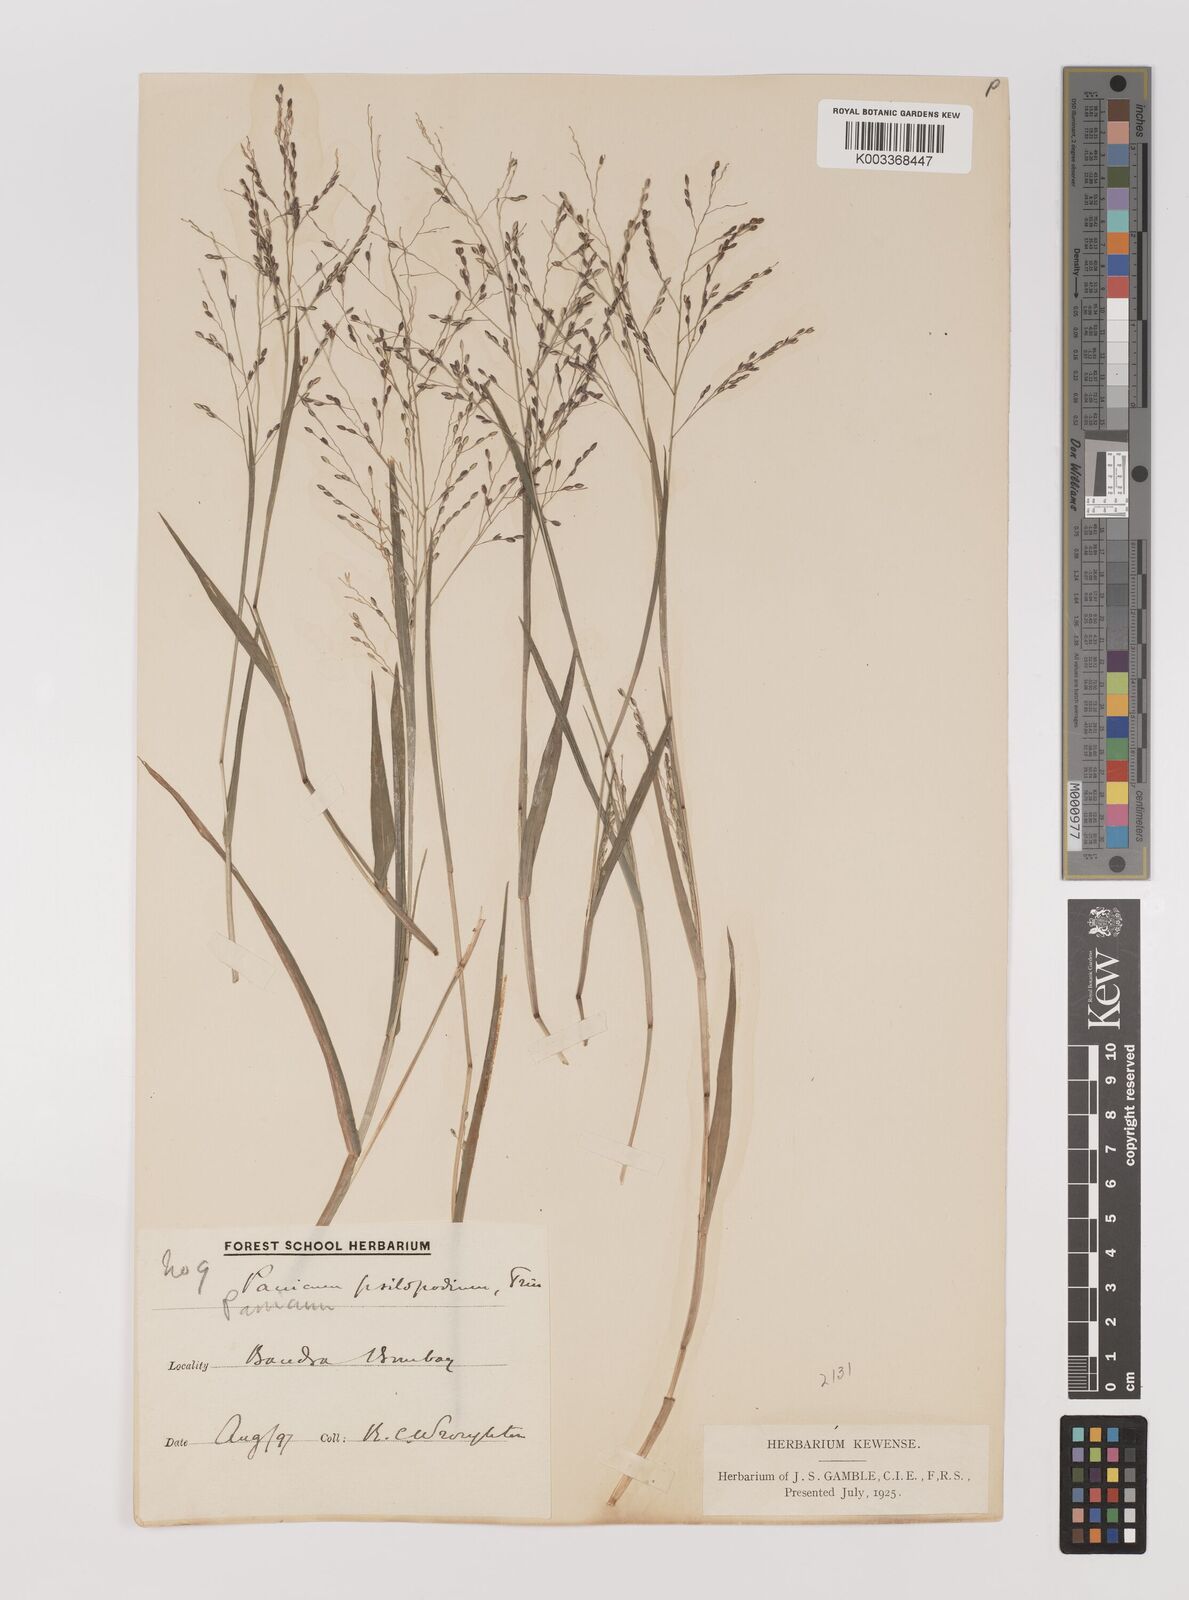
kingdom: Plantae
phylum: Tracheophyta
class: Liliopsida
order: Poales
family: Poaceae
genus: Panicum
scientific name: Panicum sumatrense
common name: Little millet
